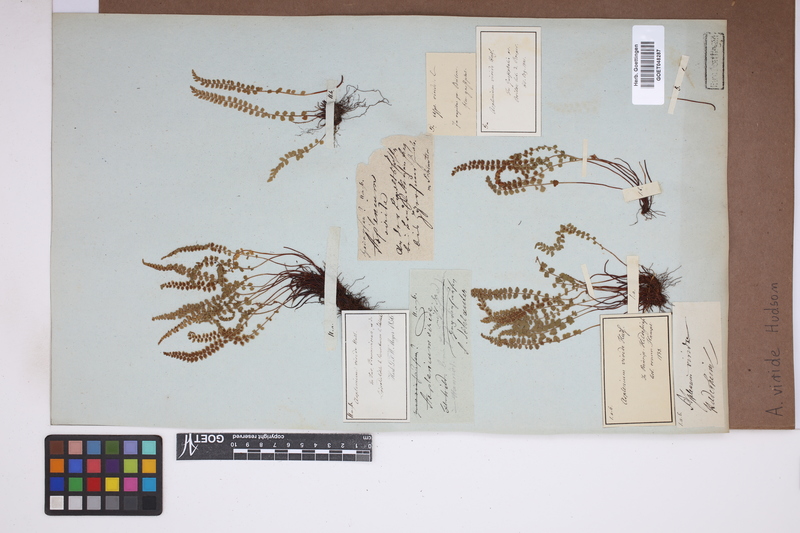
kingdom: Plantae
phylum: Tracheophyta
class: Polypodiopsida
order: Polypodiales
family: Aspleniaceae
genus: Asplenium
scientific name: Asplenium viride
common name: Green spleenwort
